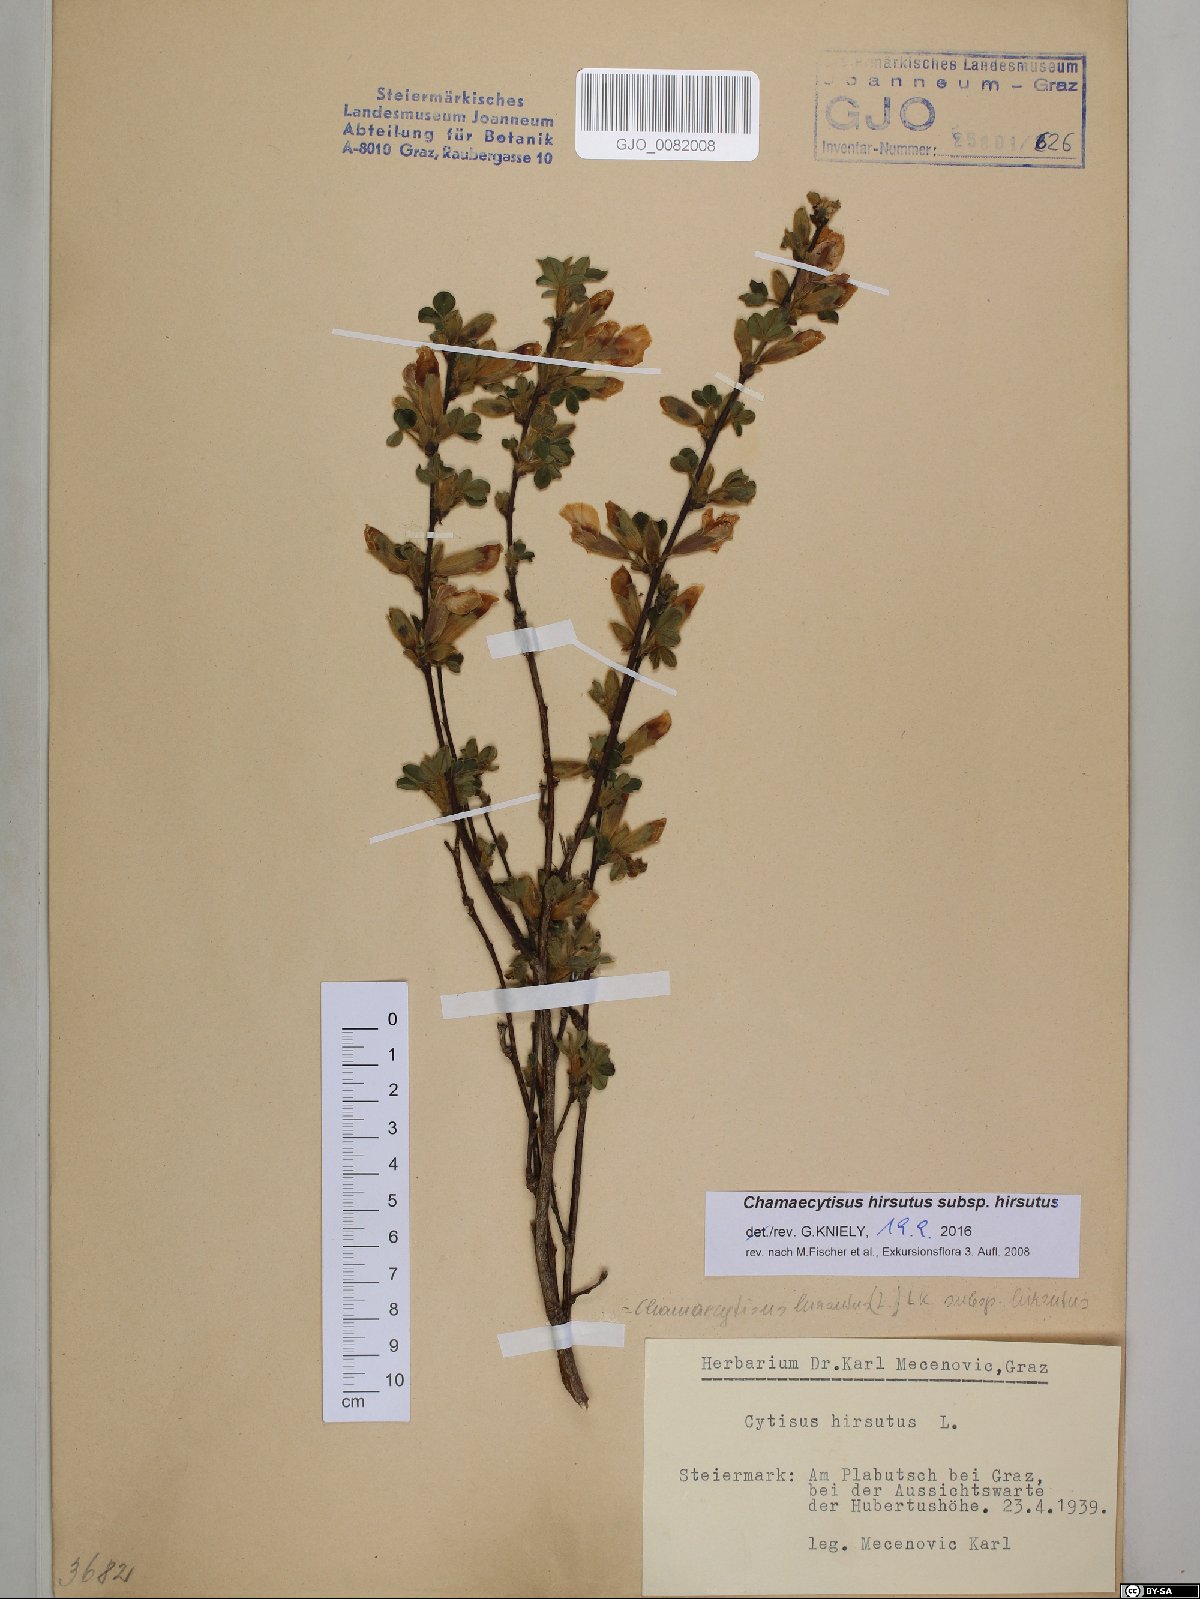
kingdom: Plantae
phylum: Tracheophyta
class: Magnoliopsida
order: Fabales
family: Fabaceae
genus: Chamaecytisus
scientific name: Chamaecytisus hirsutus
